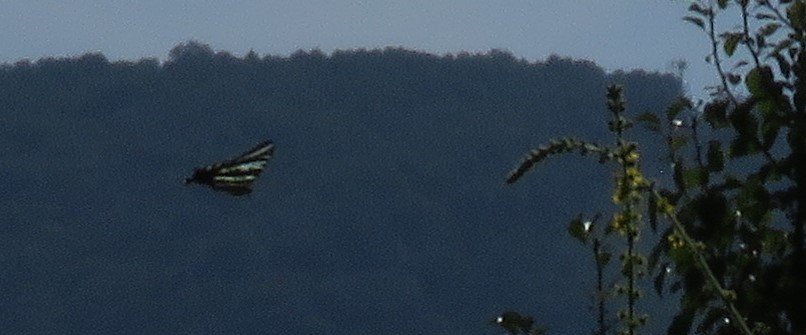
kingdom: Animalia
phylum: Arthropoda
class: Insecta
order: Lepidoptera
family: Papilionidae
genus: Protographium
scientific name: Protographium marcellus
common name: Zebra Swallowtail
